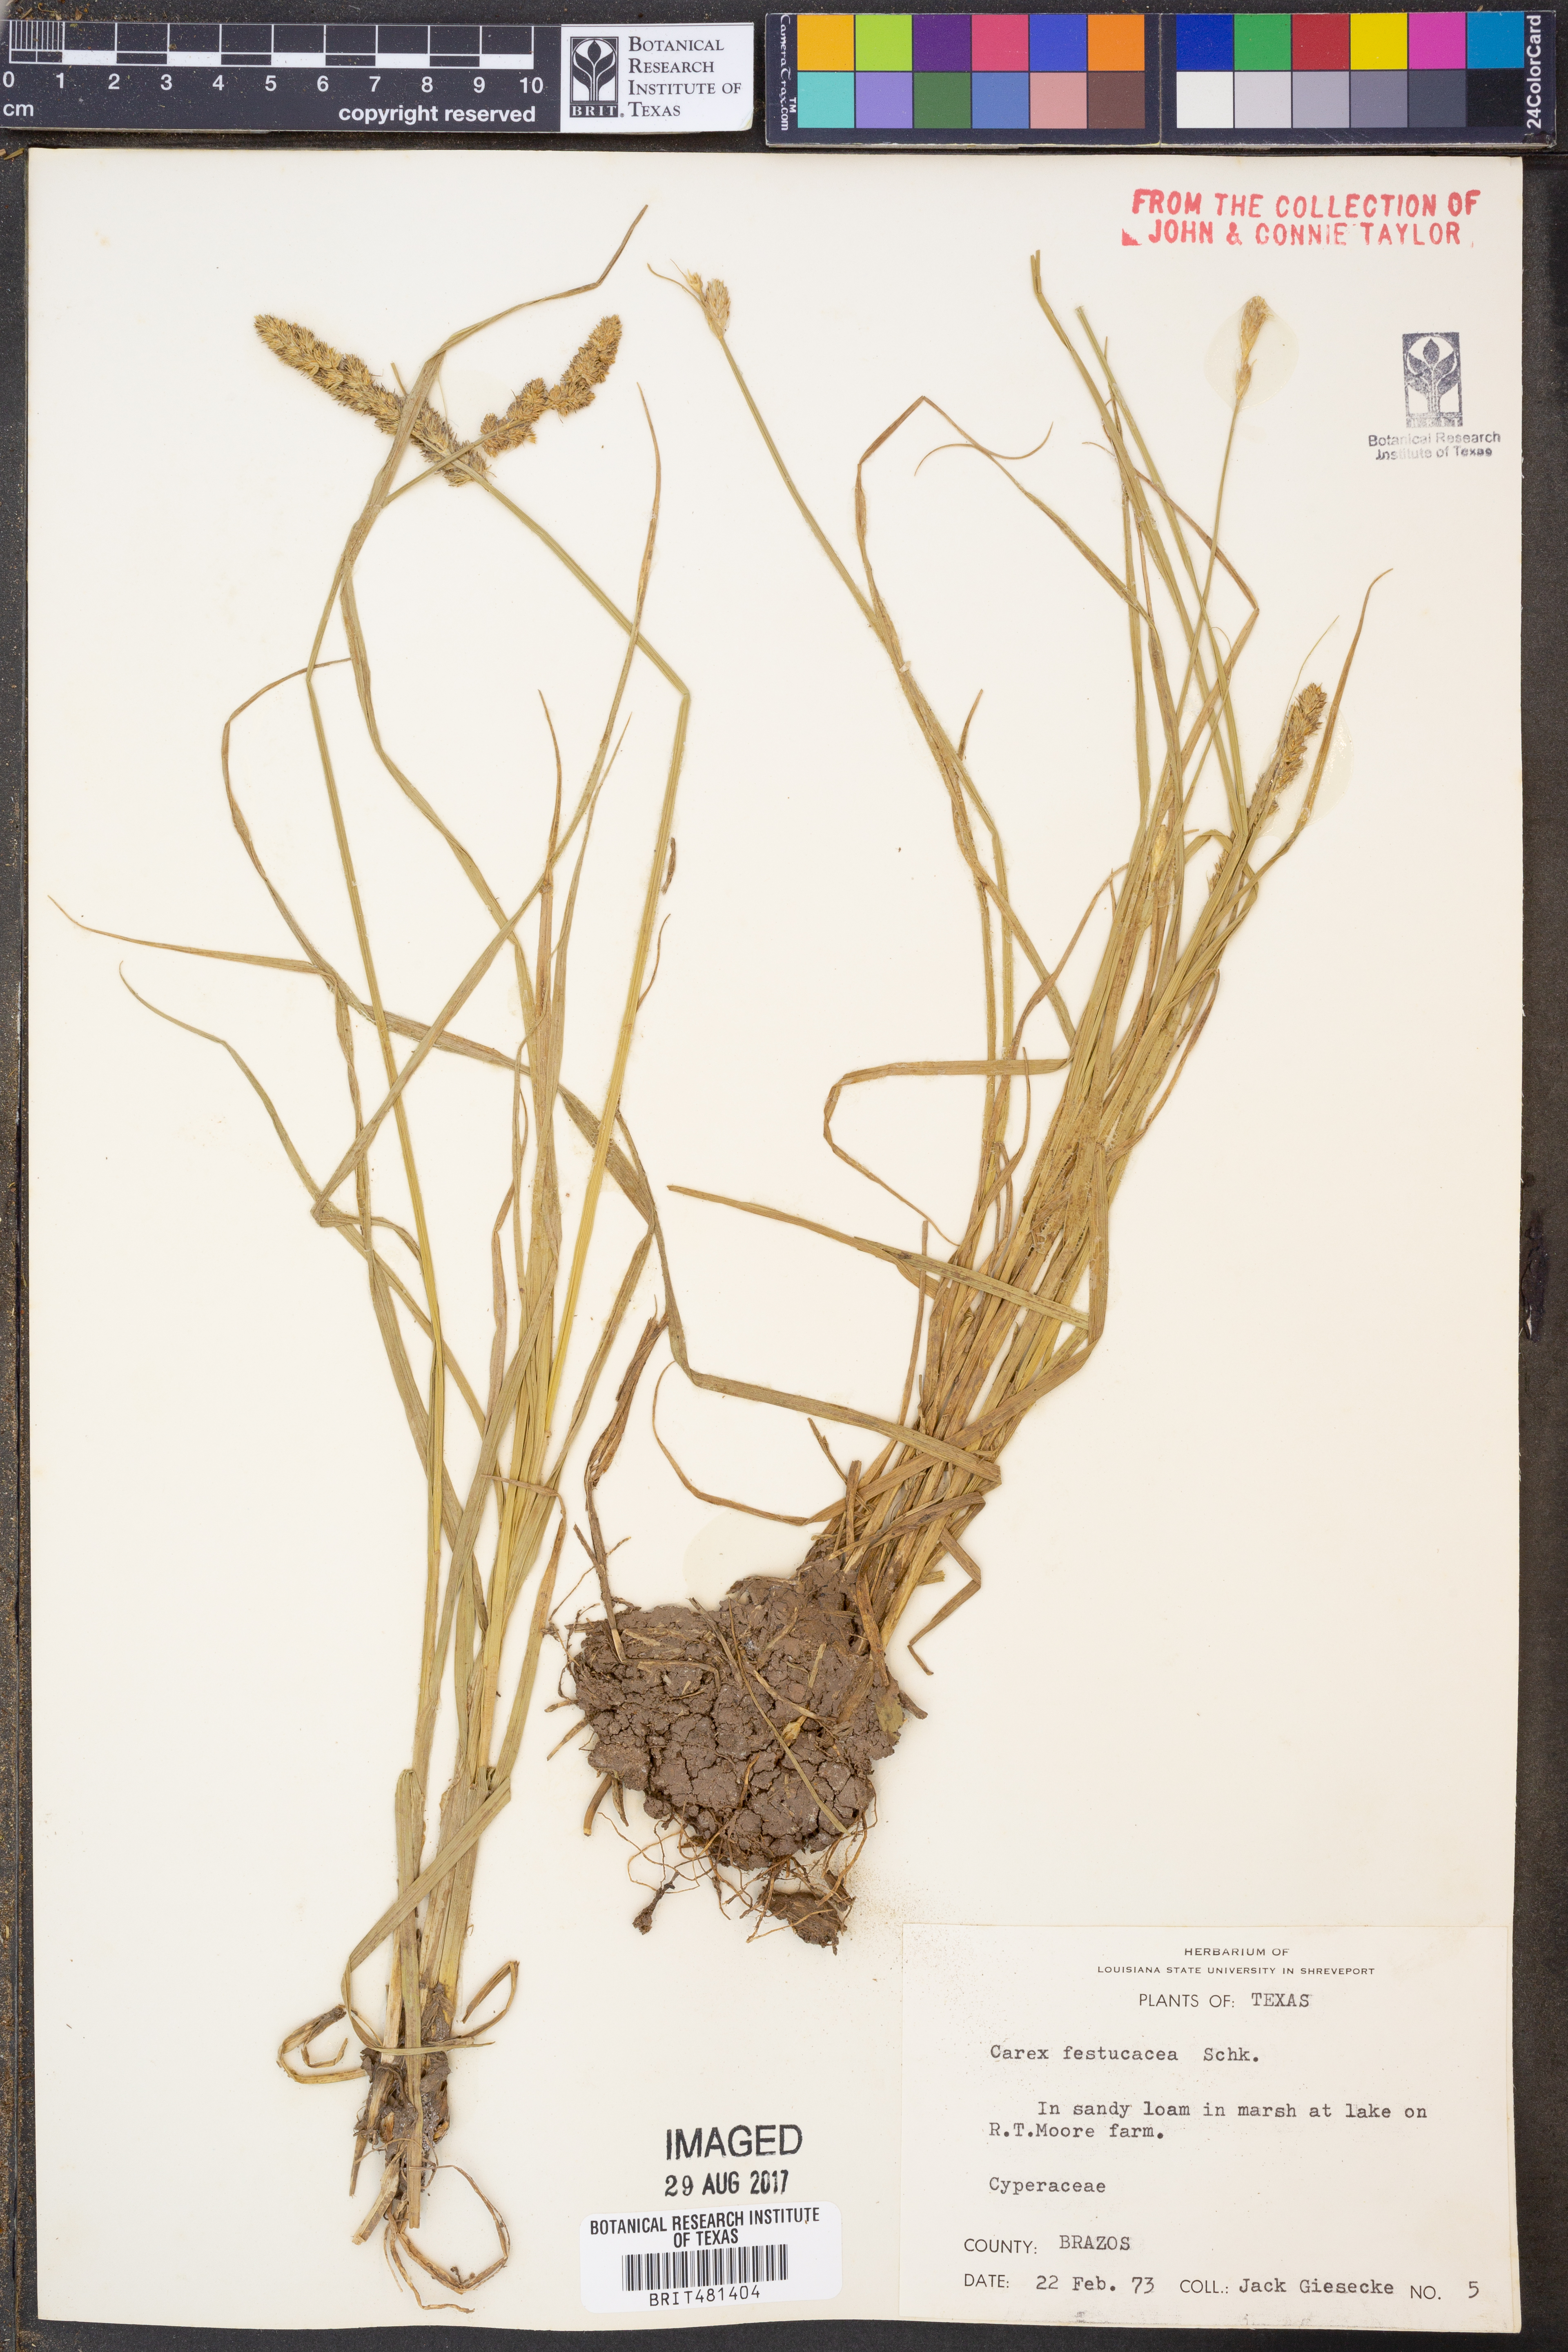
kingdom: Plantae
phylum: Tracheophyta
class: Liliopsida
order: Poales
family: Cyperaceae
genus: Carex
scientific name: Carex festucacea
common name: Fescue oval sedge
